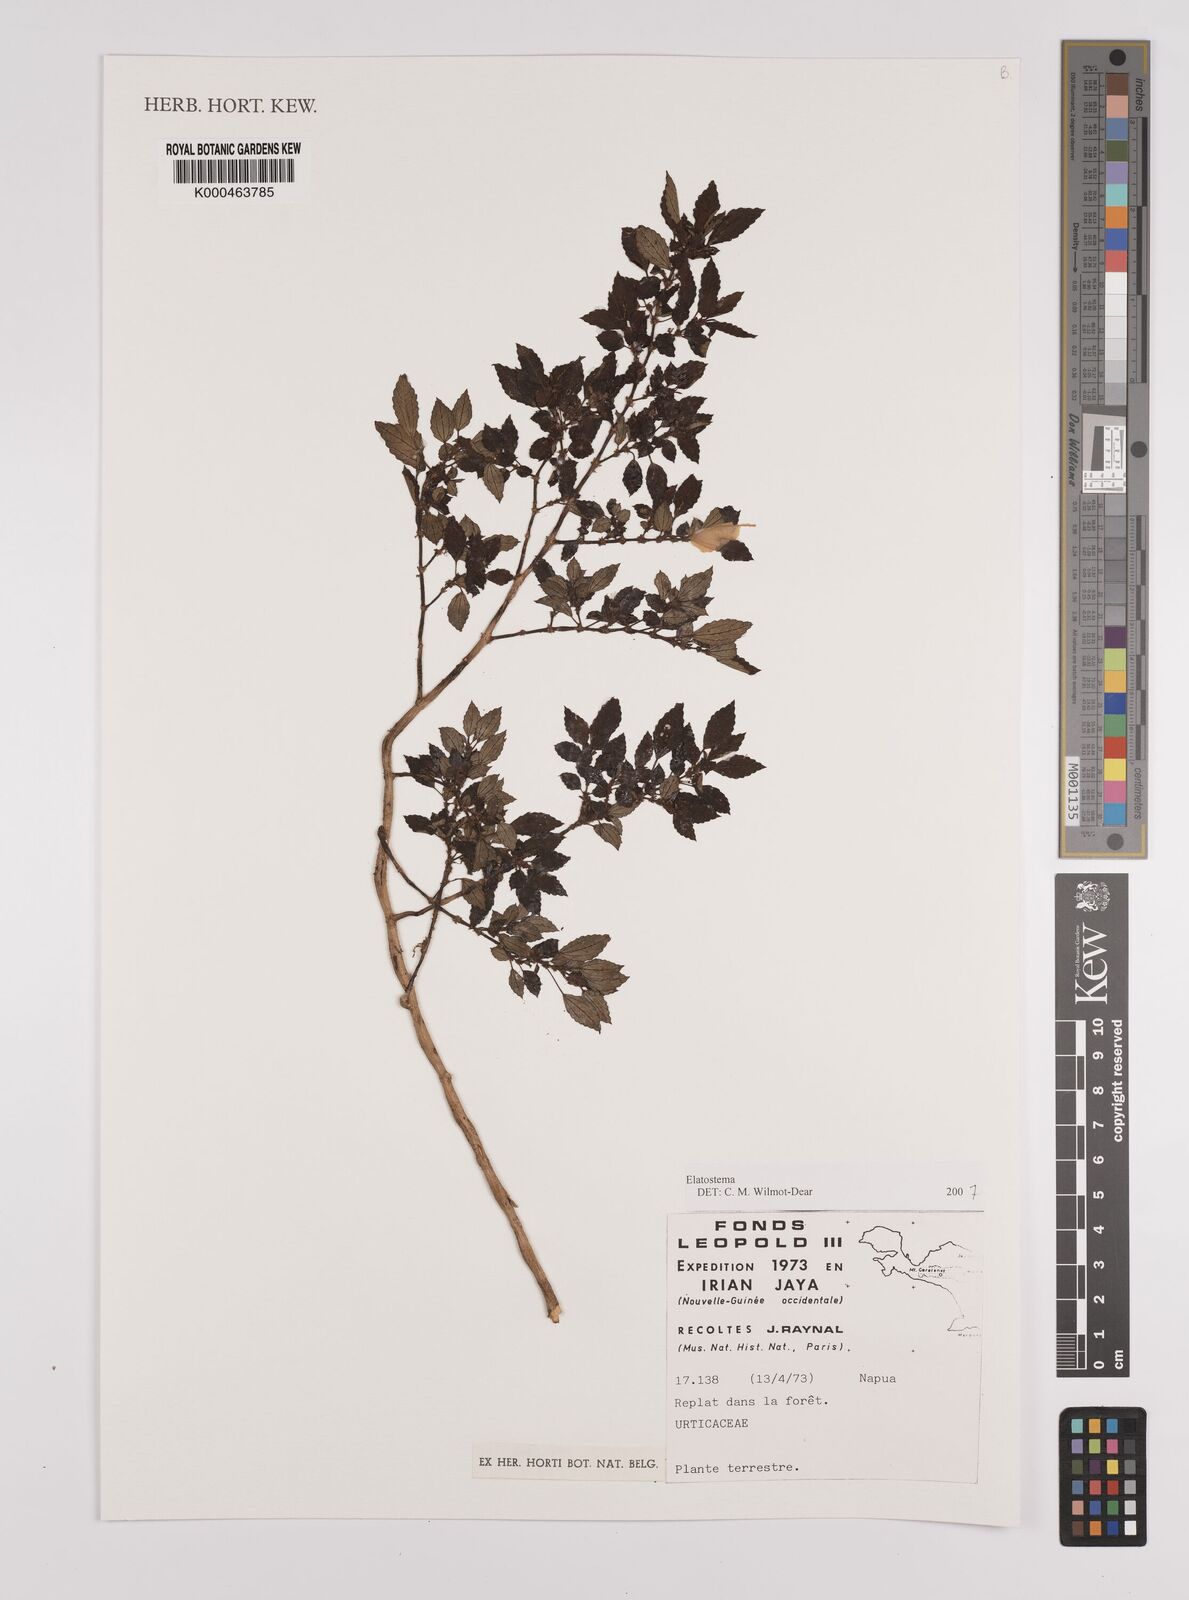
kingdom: Plantae
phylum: Tracheophyta
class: Magnoliopsida
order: Rosales
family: Urticaceae
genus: Elatostema
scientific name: Elatostema
